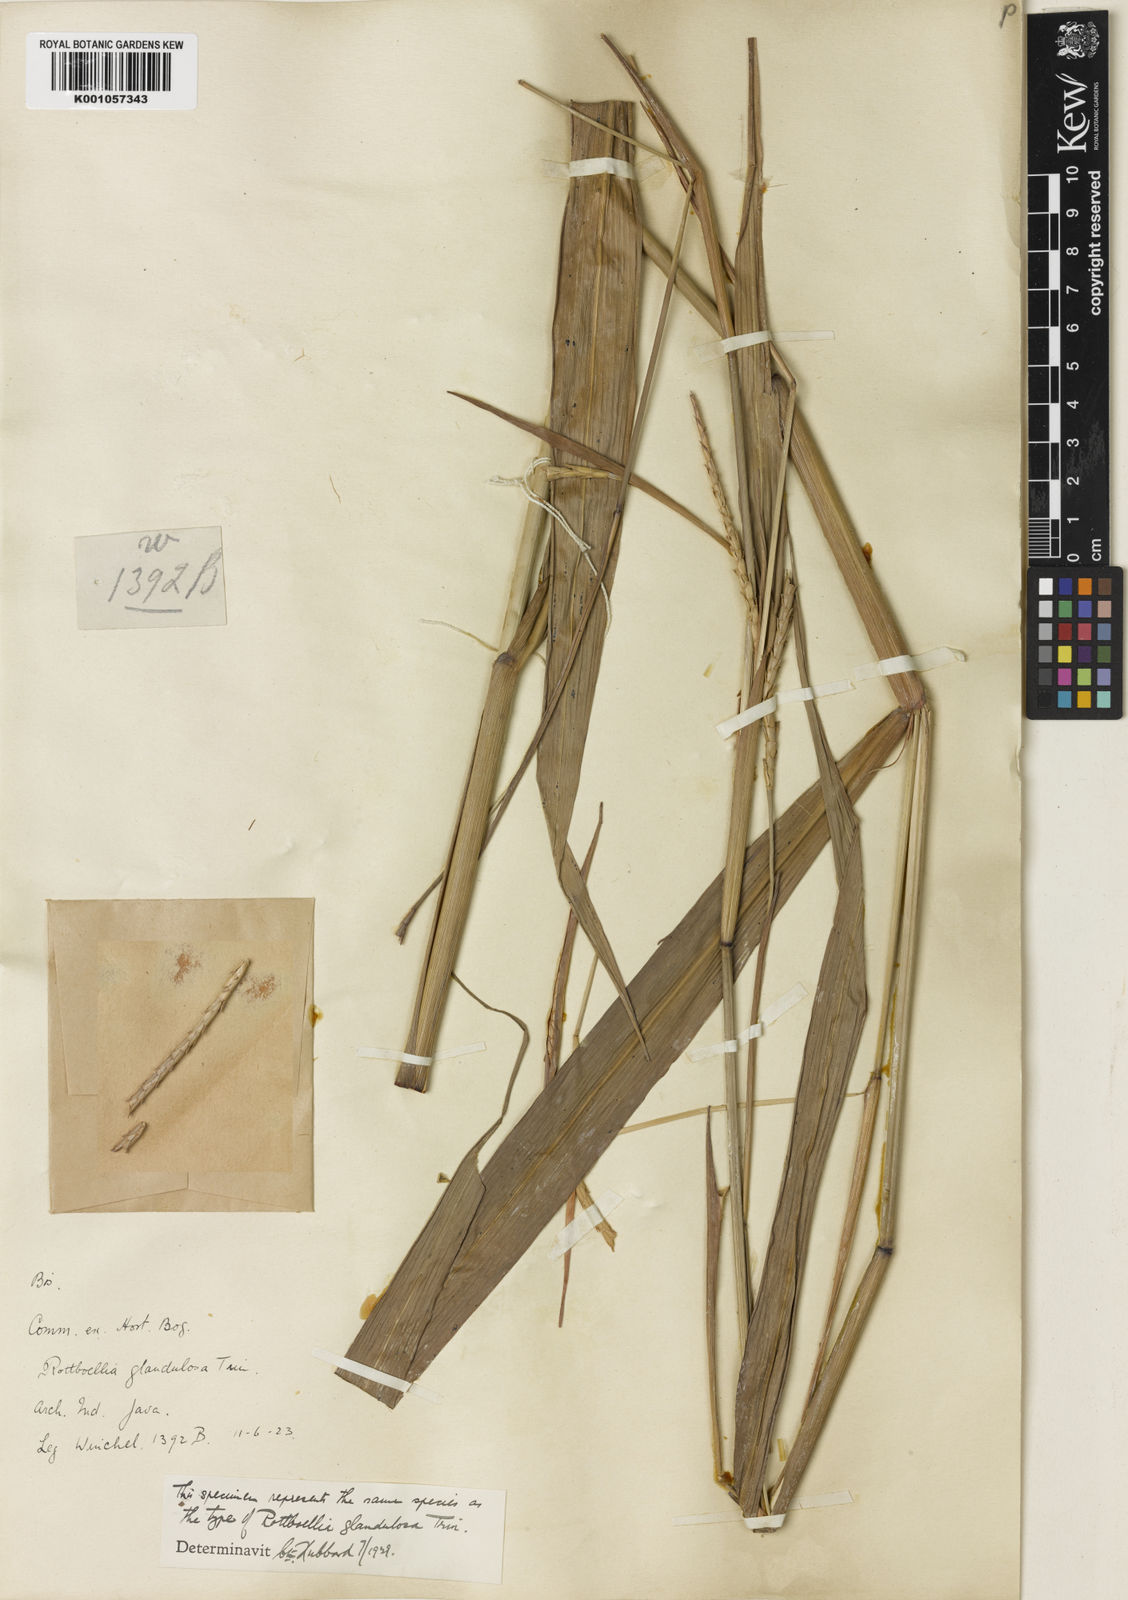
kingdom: Plantae
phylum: Tracheophyta
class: Liliopsida
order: Poales
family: Poaceae
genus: Rottboellia
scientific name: Rottboellia glandulosa
